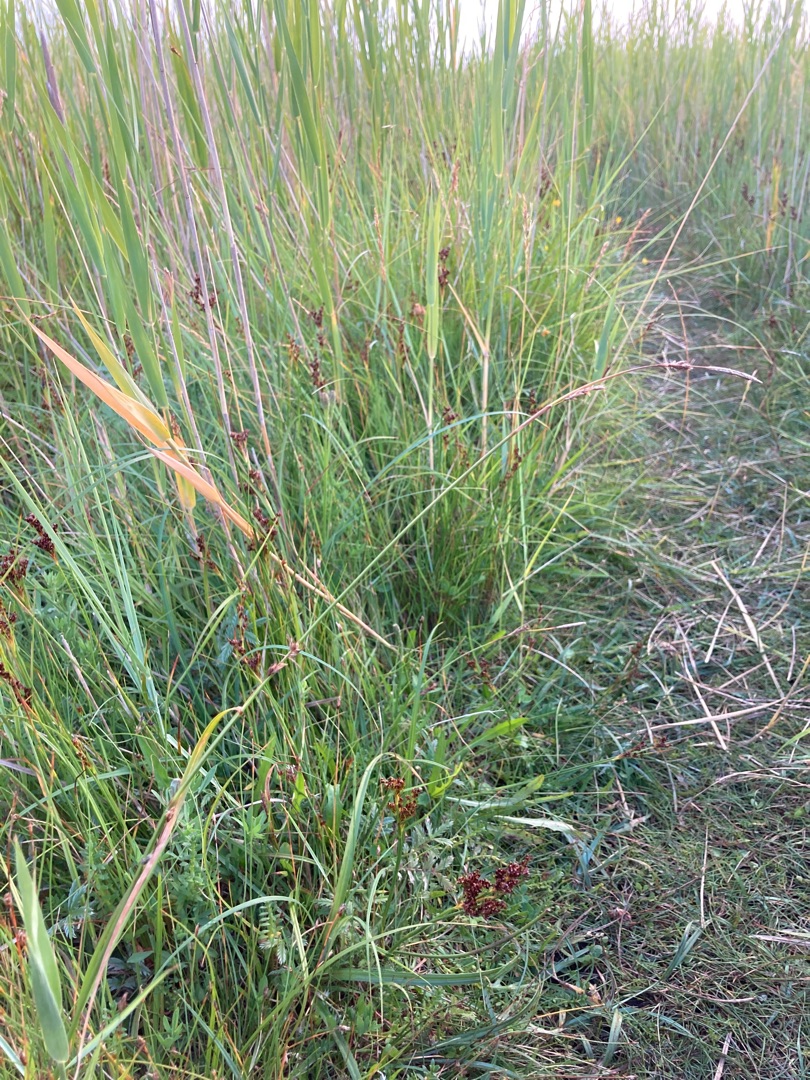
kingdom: Plantae
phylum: Tracheophyta
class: Liliopsida
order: Poales
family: Cyperaceae
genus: Carex
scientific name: Carex distans
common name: Fjernakset star
